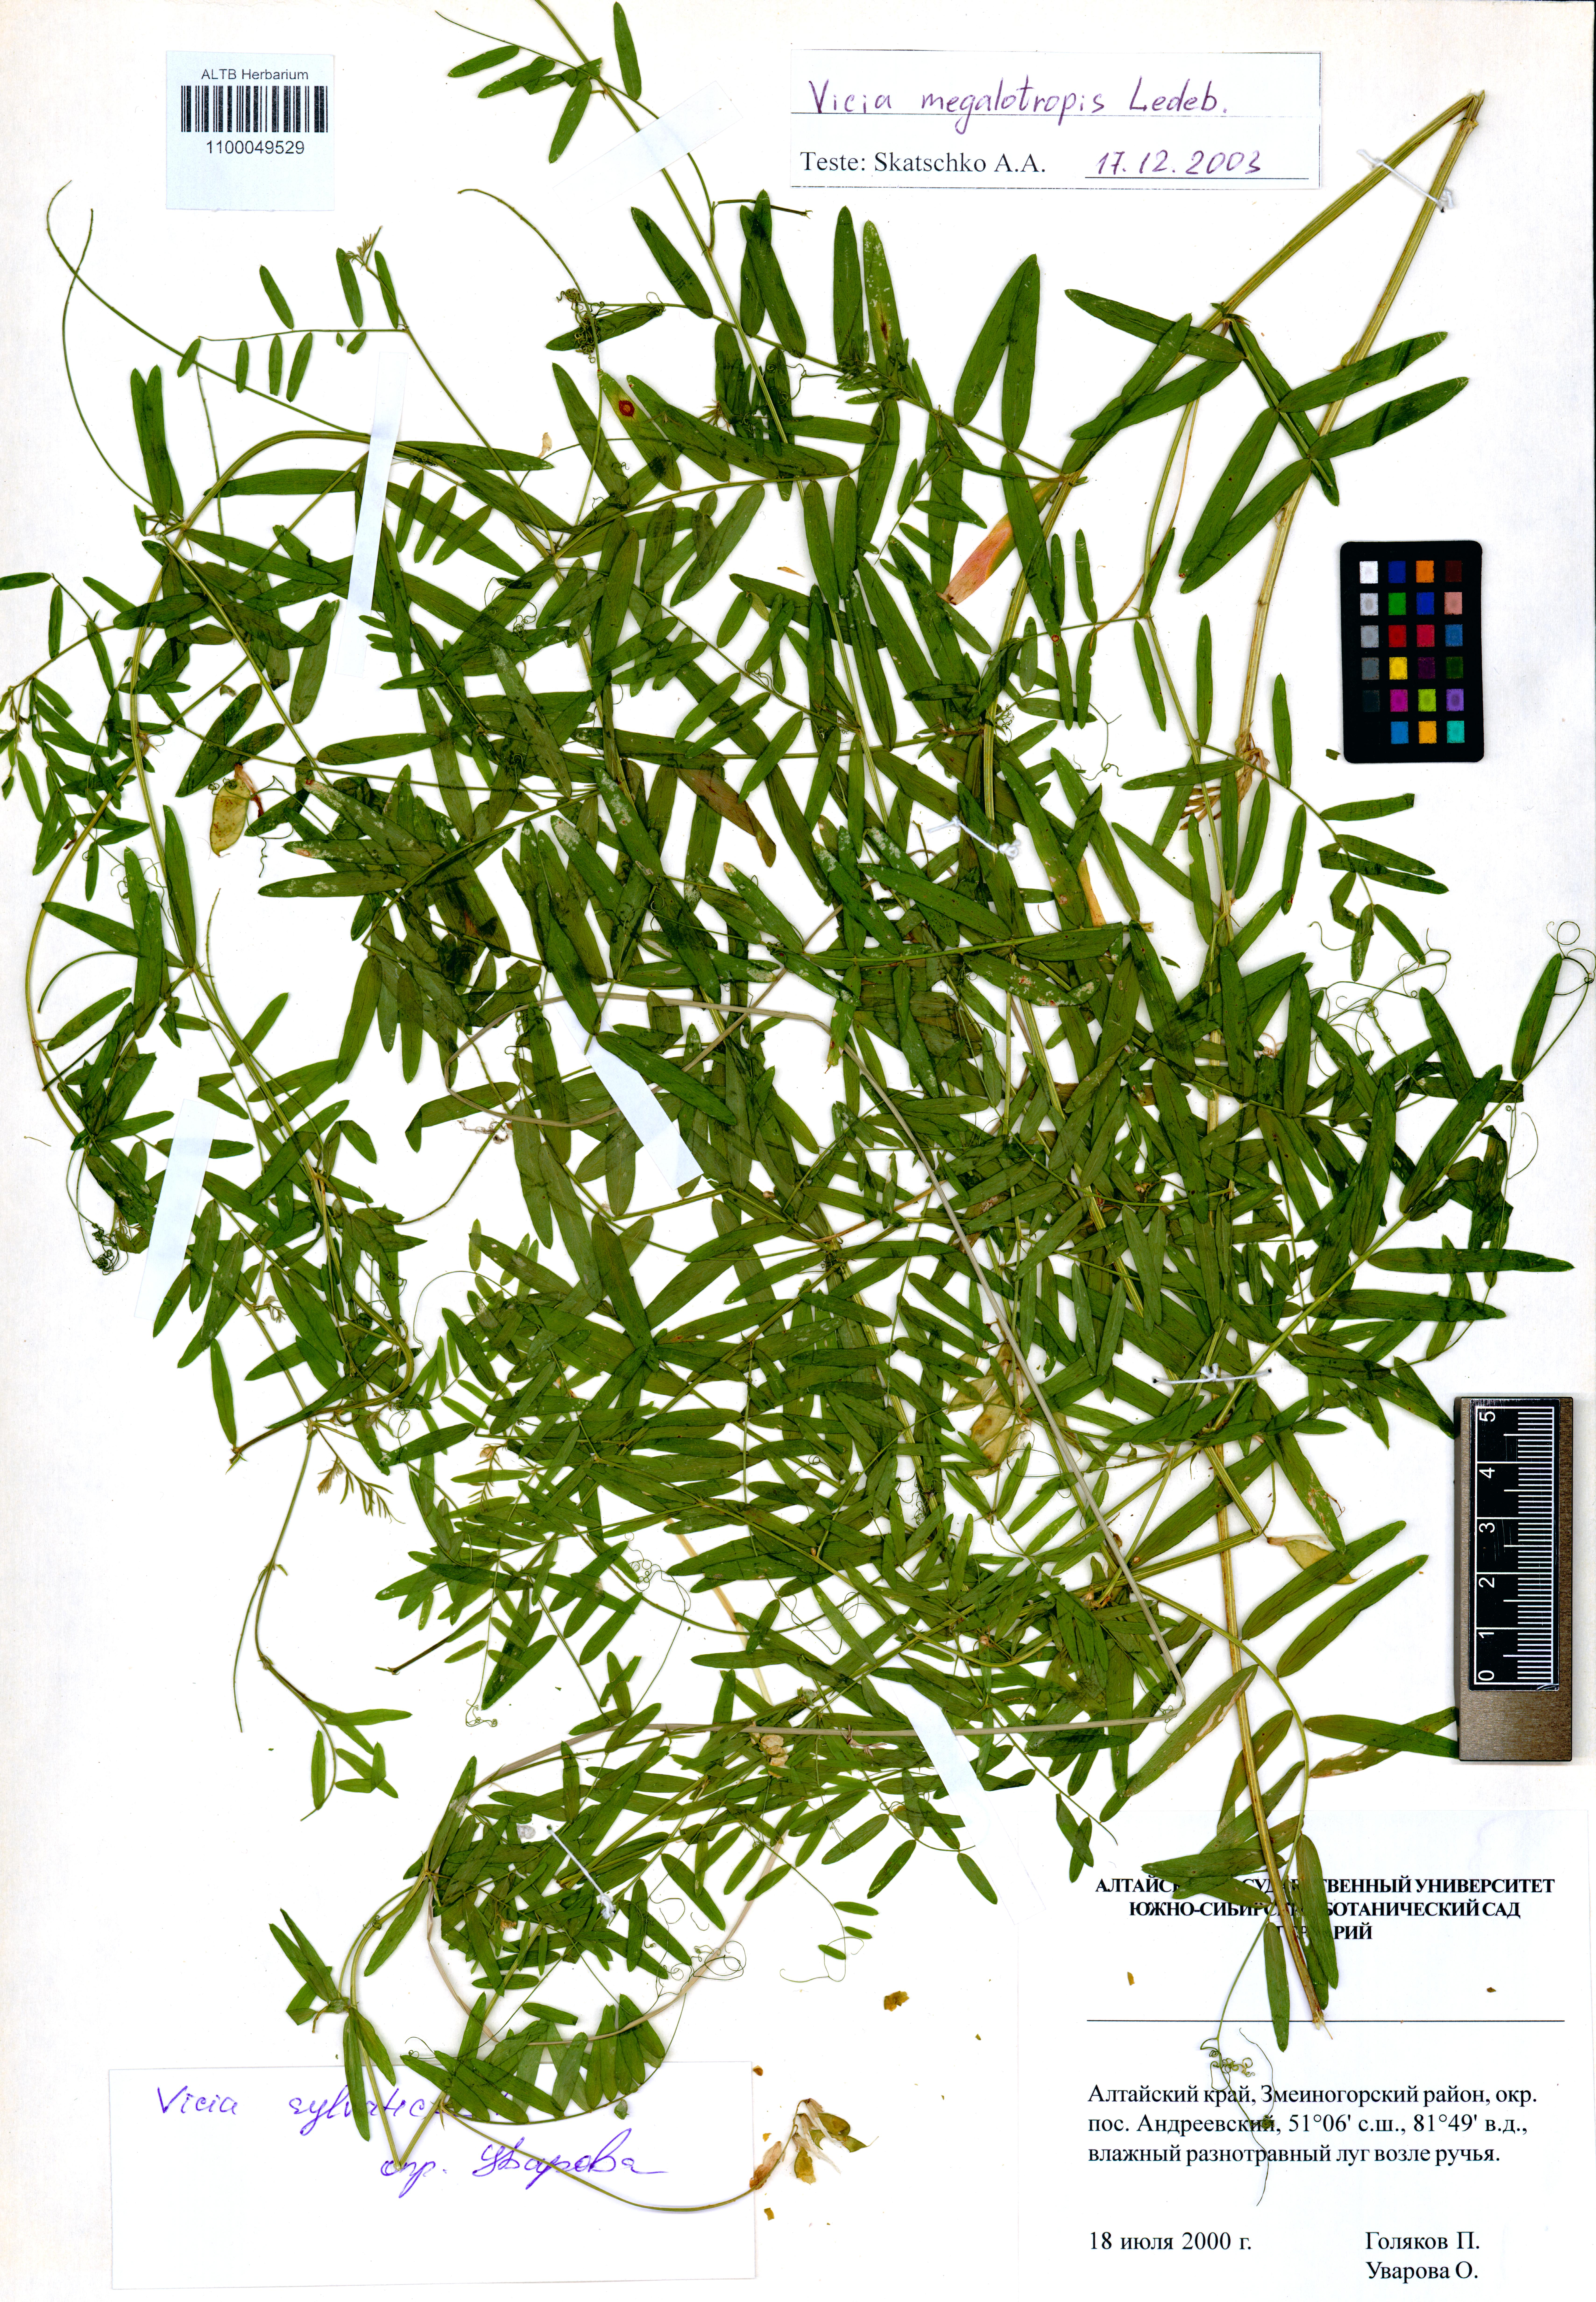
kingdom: Plantae
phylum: Tracheophyta
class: Magnoliopsida
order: Fabales
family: Fabaceae
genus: Vicia
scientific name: Vicia megalotropis
